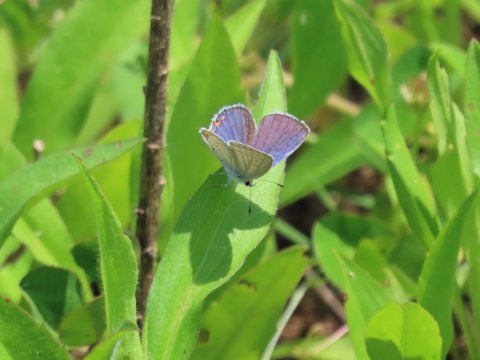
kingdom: Animalia
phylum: Arthropoda
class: Insecta
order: Lepidoptera
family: Lycaenidae
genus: Elkalyce
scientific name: Elkalyce comyntas
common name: Eastern Tailed-Blue
